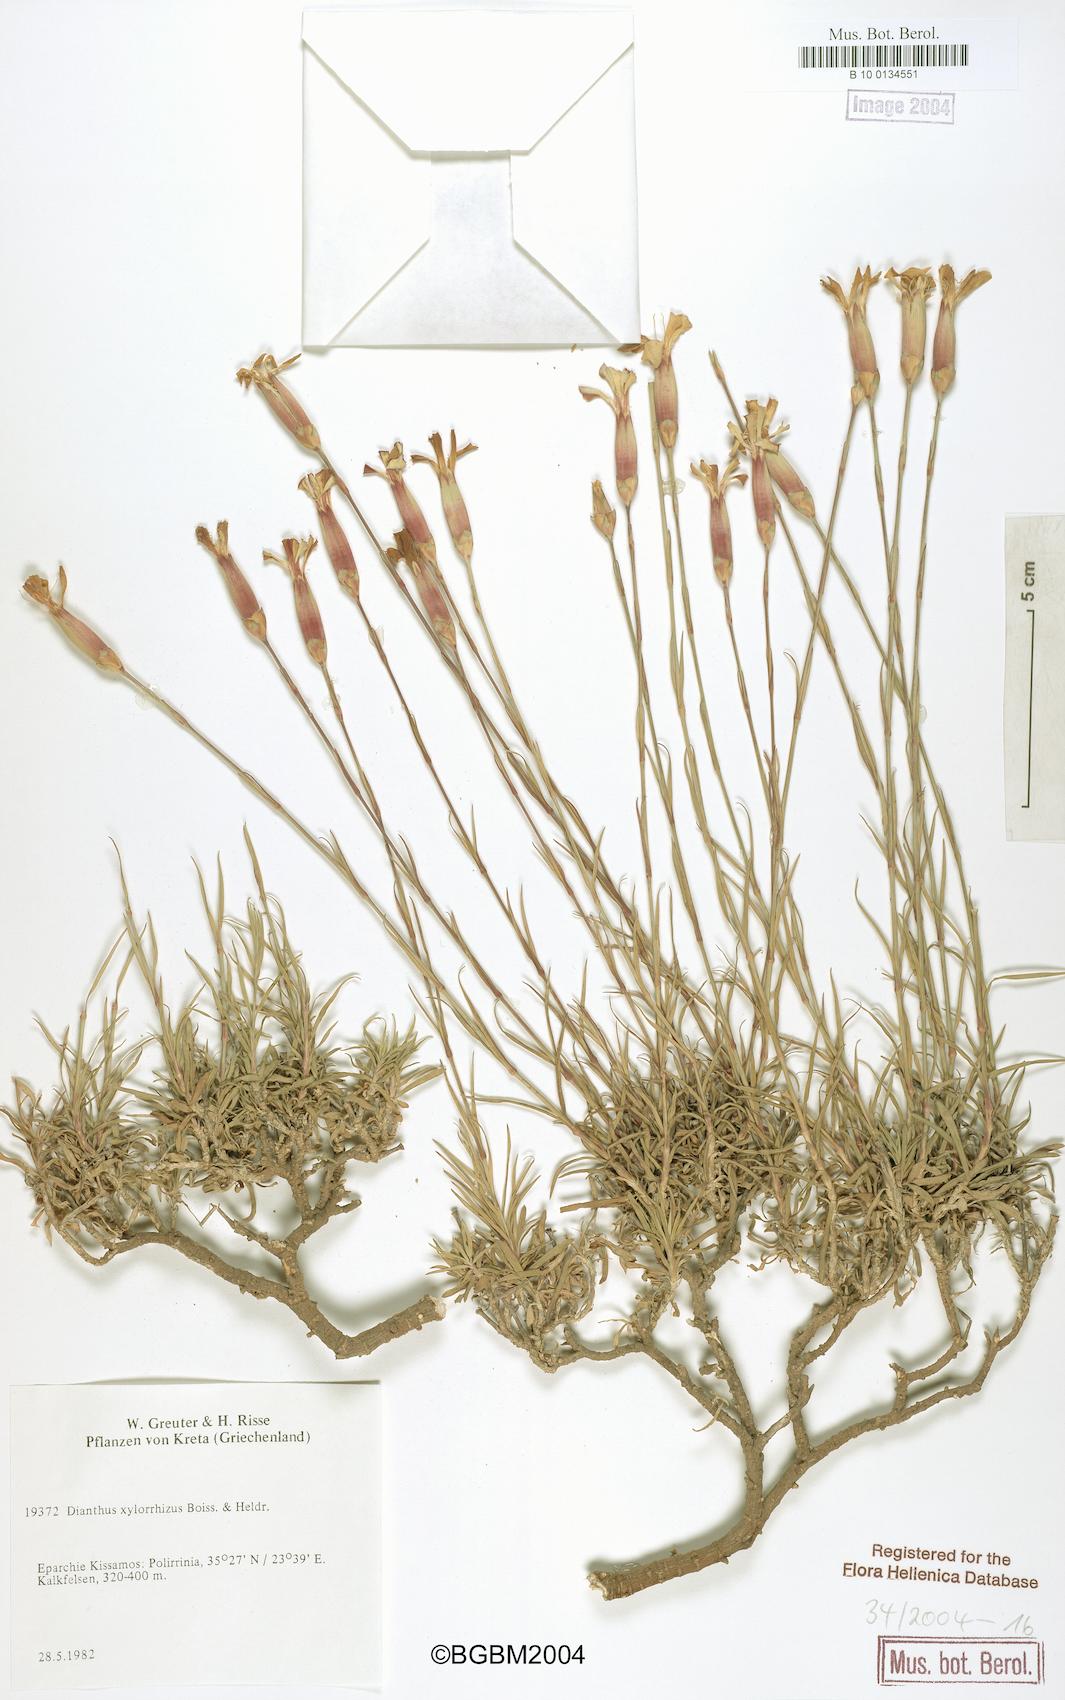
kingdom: Plantae
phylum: Tracheophyta
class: Magnoliopsida
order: Caryophyllales
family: Caryophyllaceae
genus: Dianthus
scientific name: Dianthus xylorrhizus
